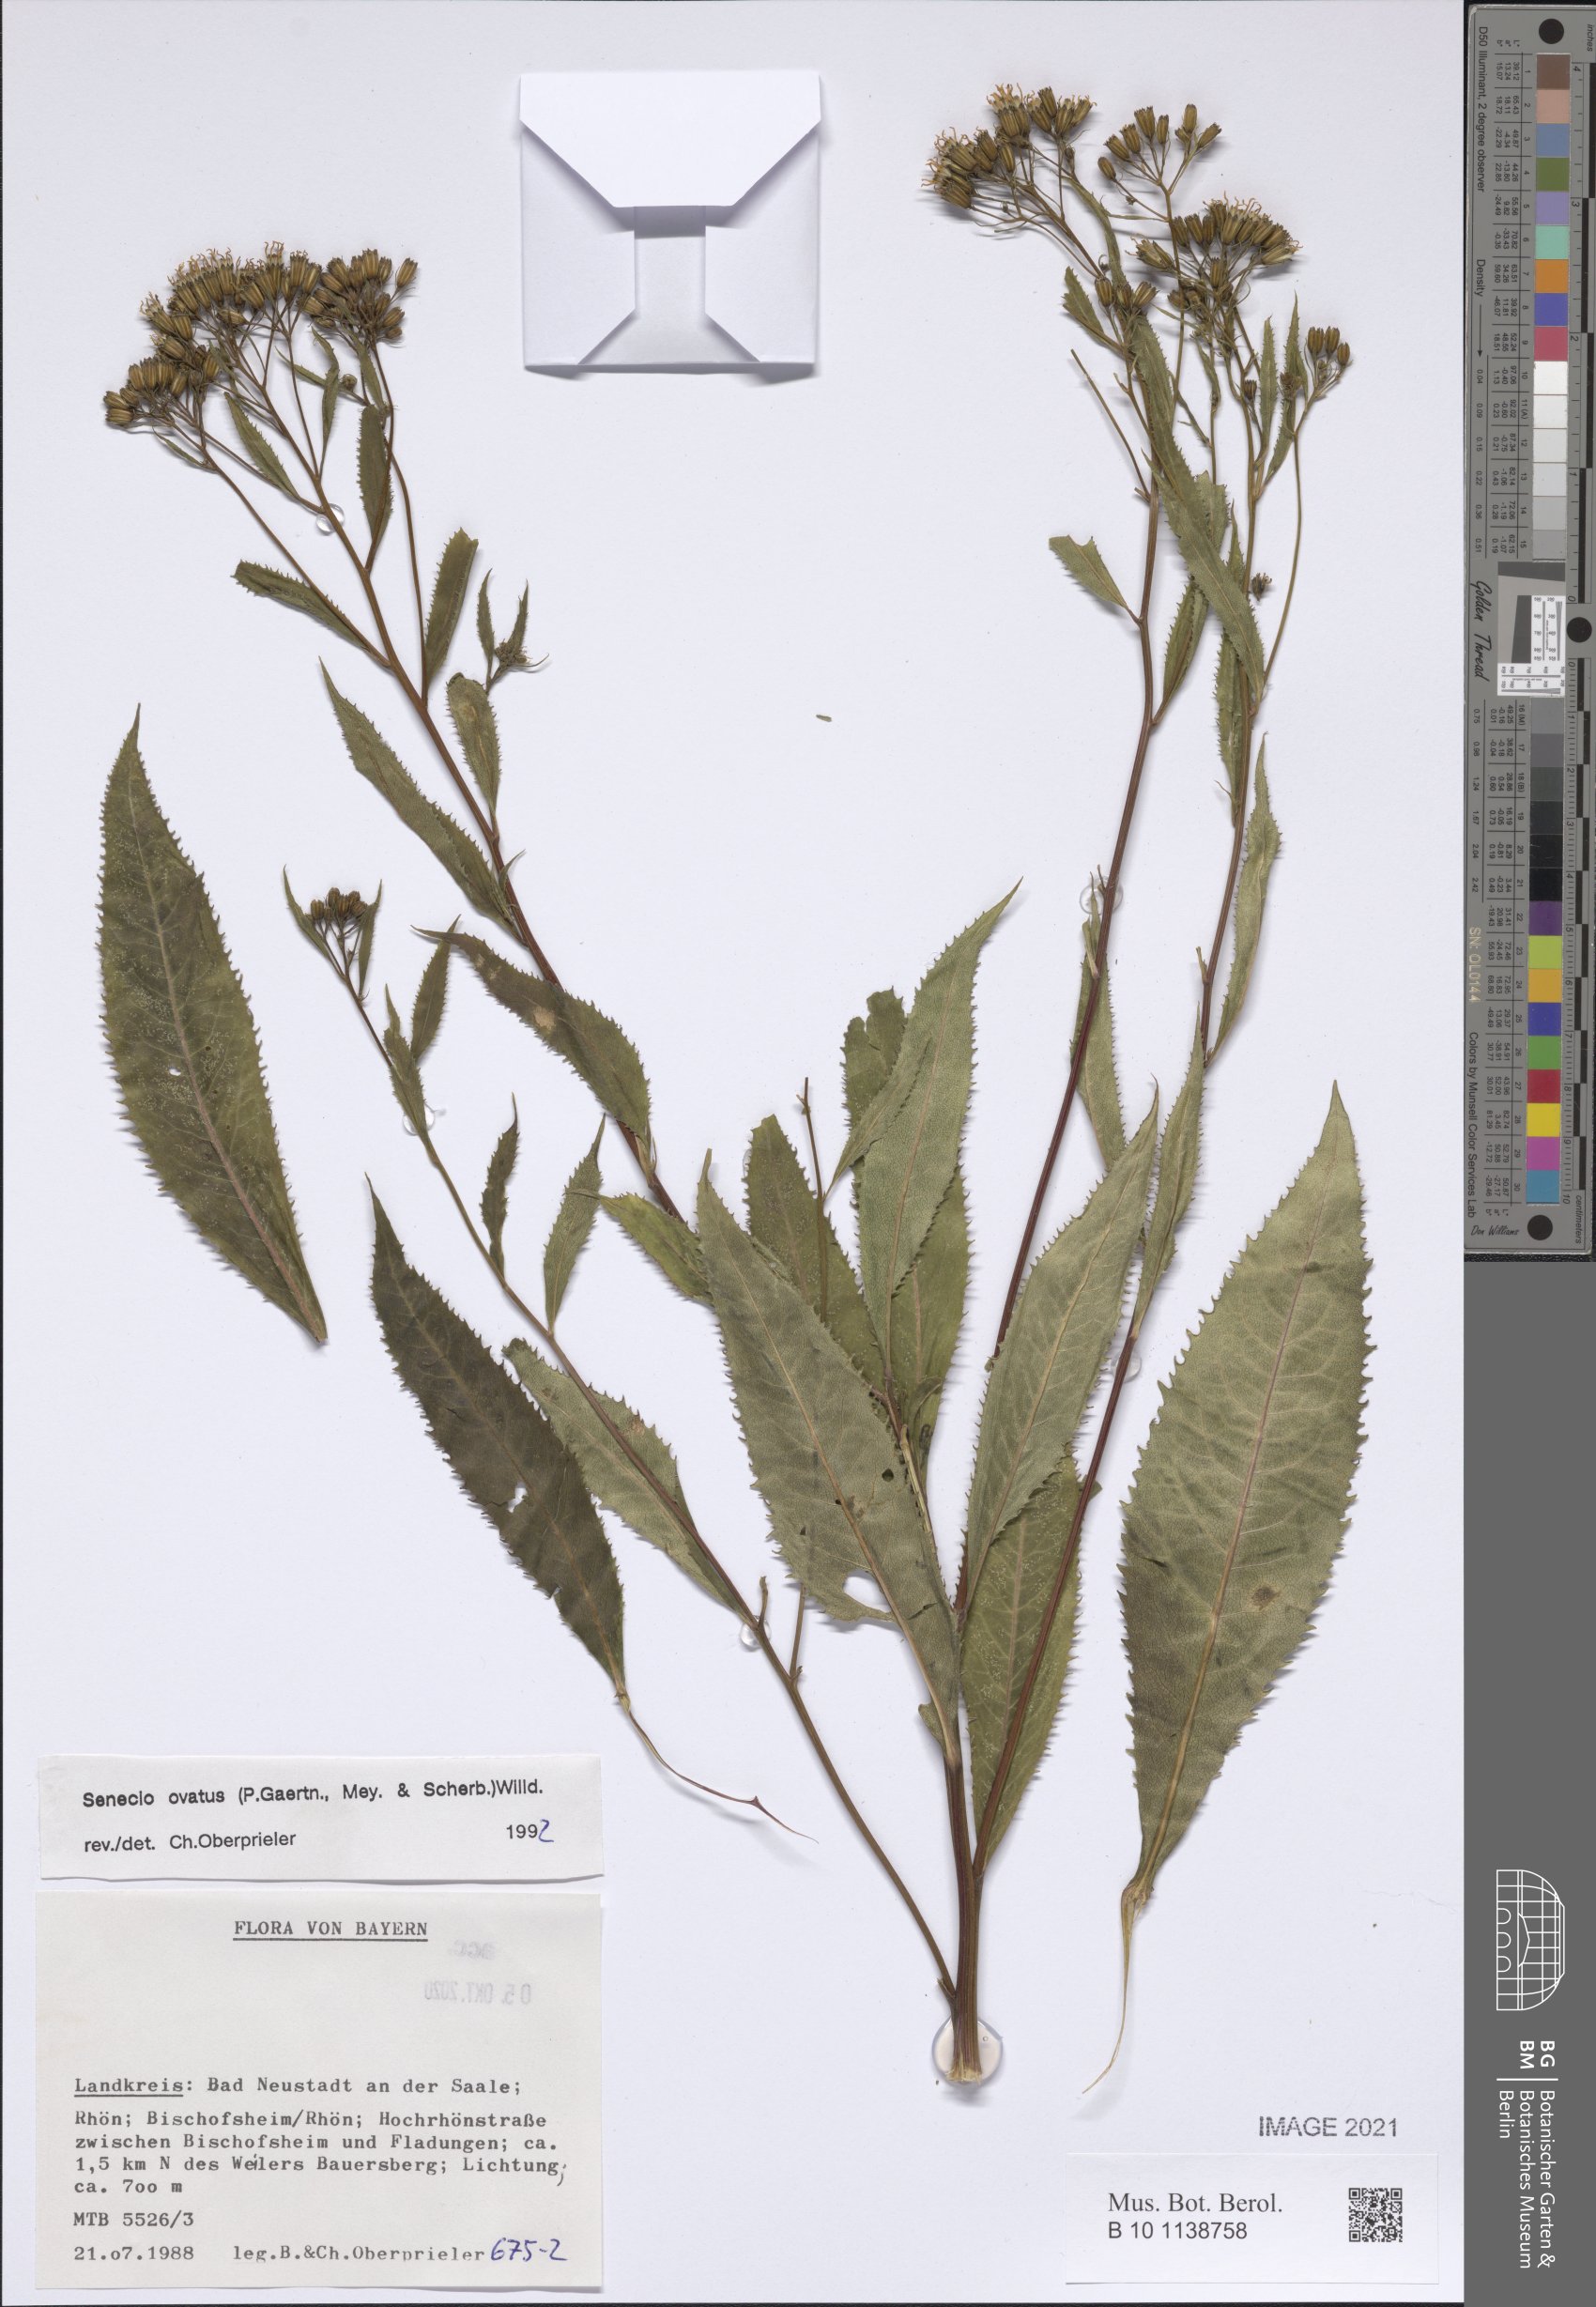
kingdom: Plantae
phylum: Tracheophyta
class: Magnoliopsida
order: Asterales
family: Asteraceae
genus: Senecio
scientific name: Senecio ovatus
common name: Wood ragwort
